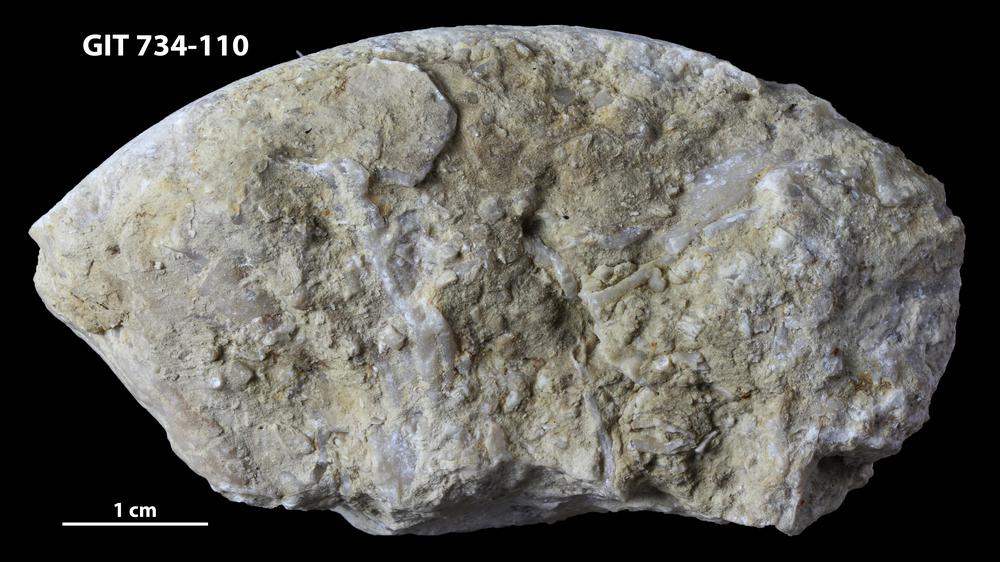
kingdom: Animalia
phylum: Cnidaria
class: Anthozoa
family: Halysitidae
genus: Eocatenipora
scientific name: Eocatenipora
